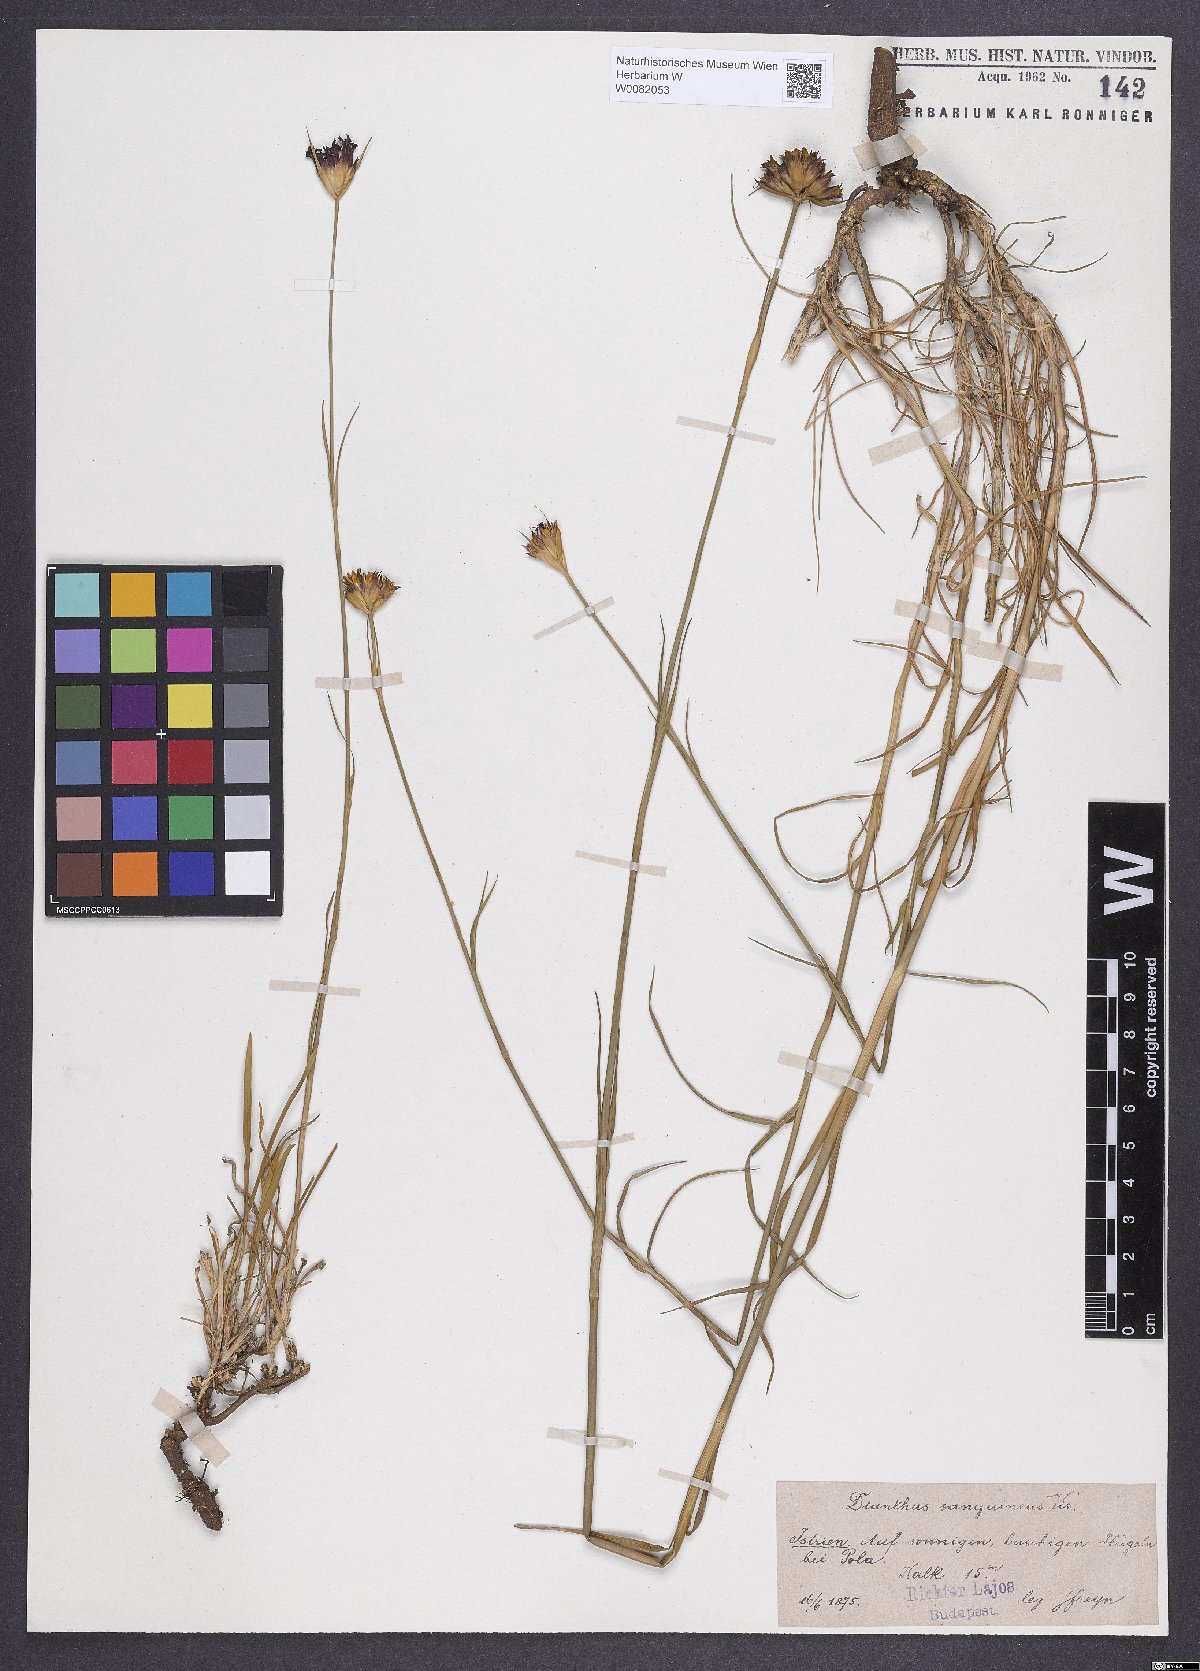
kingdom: Plantae
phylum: Tracheophyta
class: Magnoliopsida
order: Caryophyllales
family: Caryophyllaceae
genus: Dianthus
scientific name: Dianthus carthusianorum
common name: Carthusian pink
